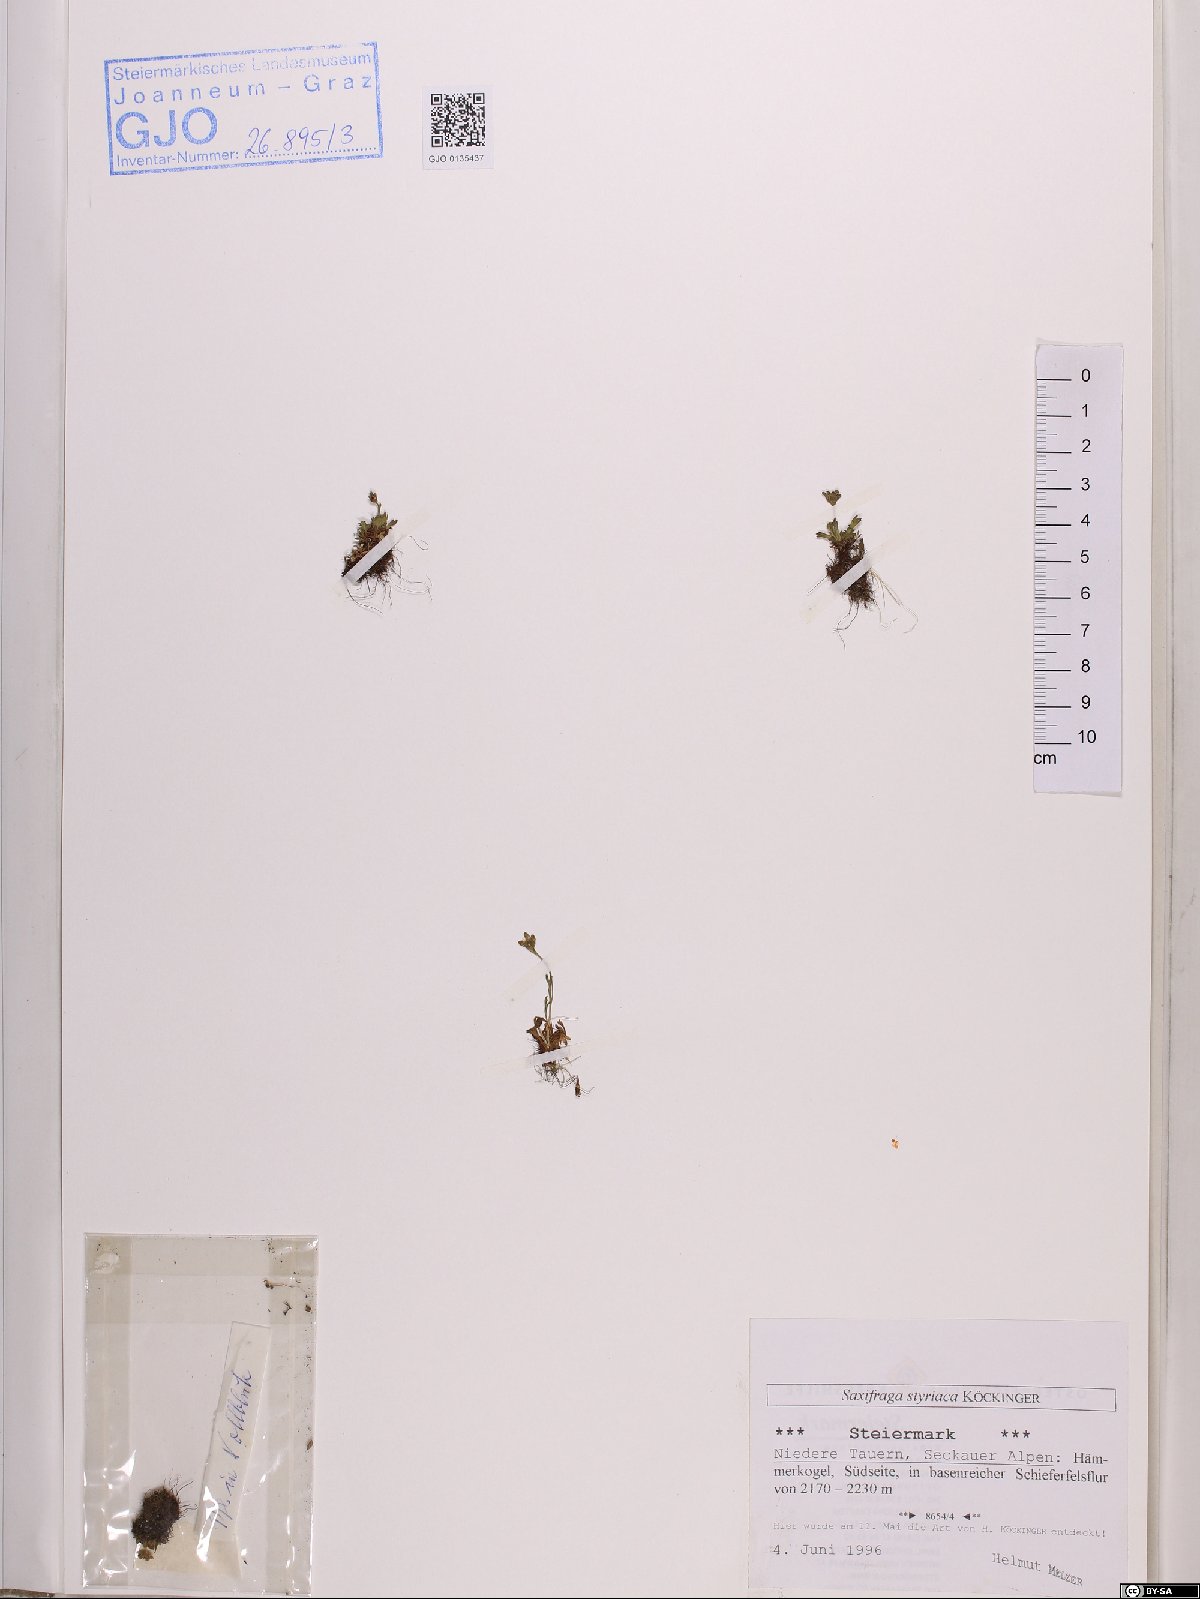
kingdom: Plantae
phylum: Tracheophyta
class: Magnoliopsida
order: Saxifragales
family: Saxifragaceae
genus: Saxifraga
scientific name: Saxifraga styriaca
